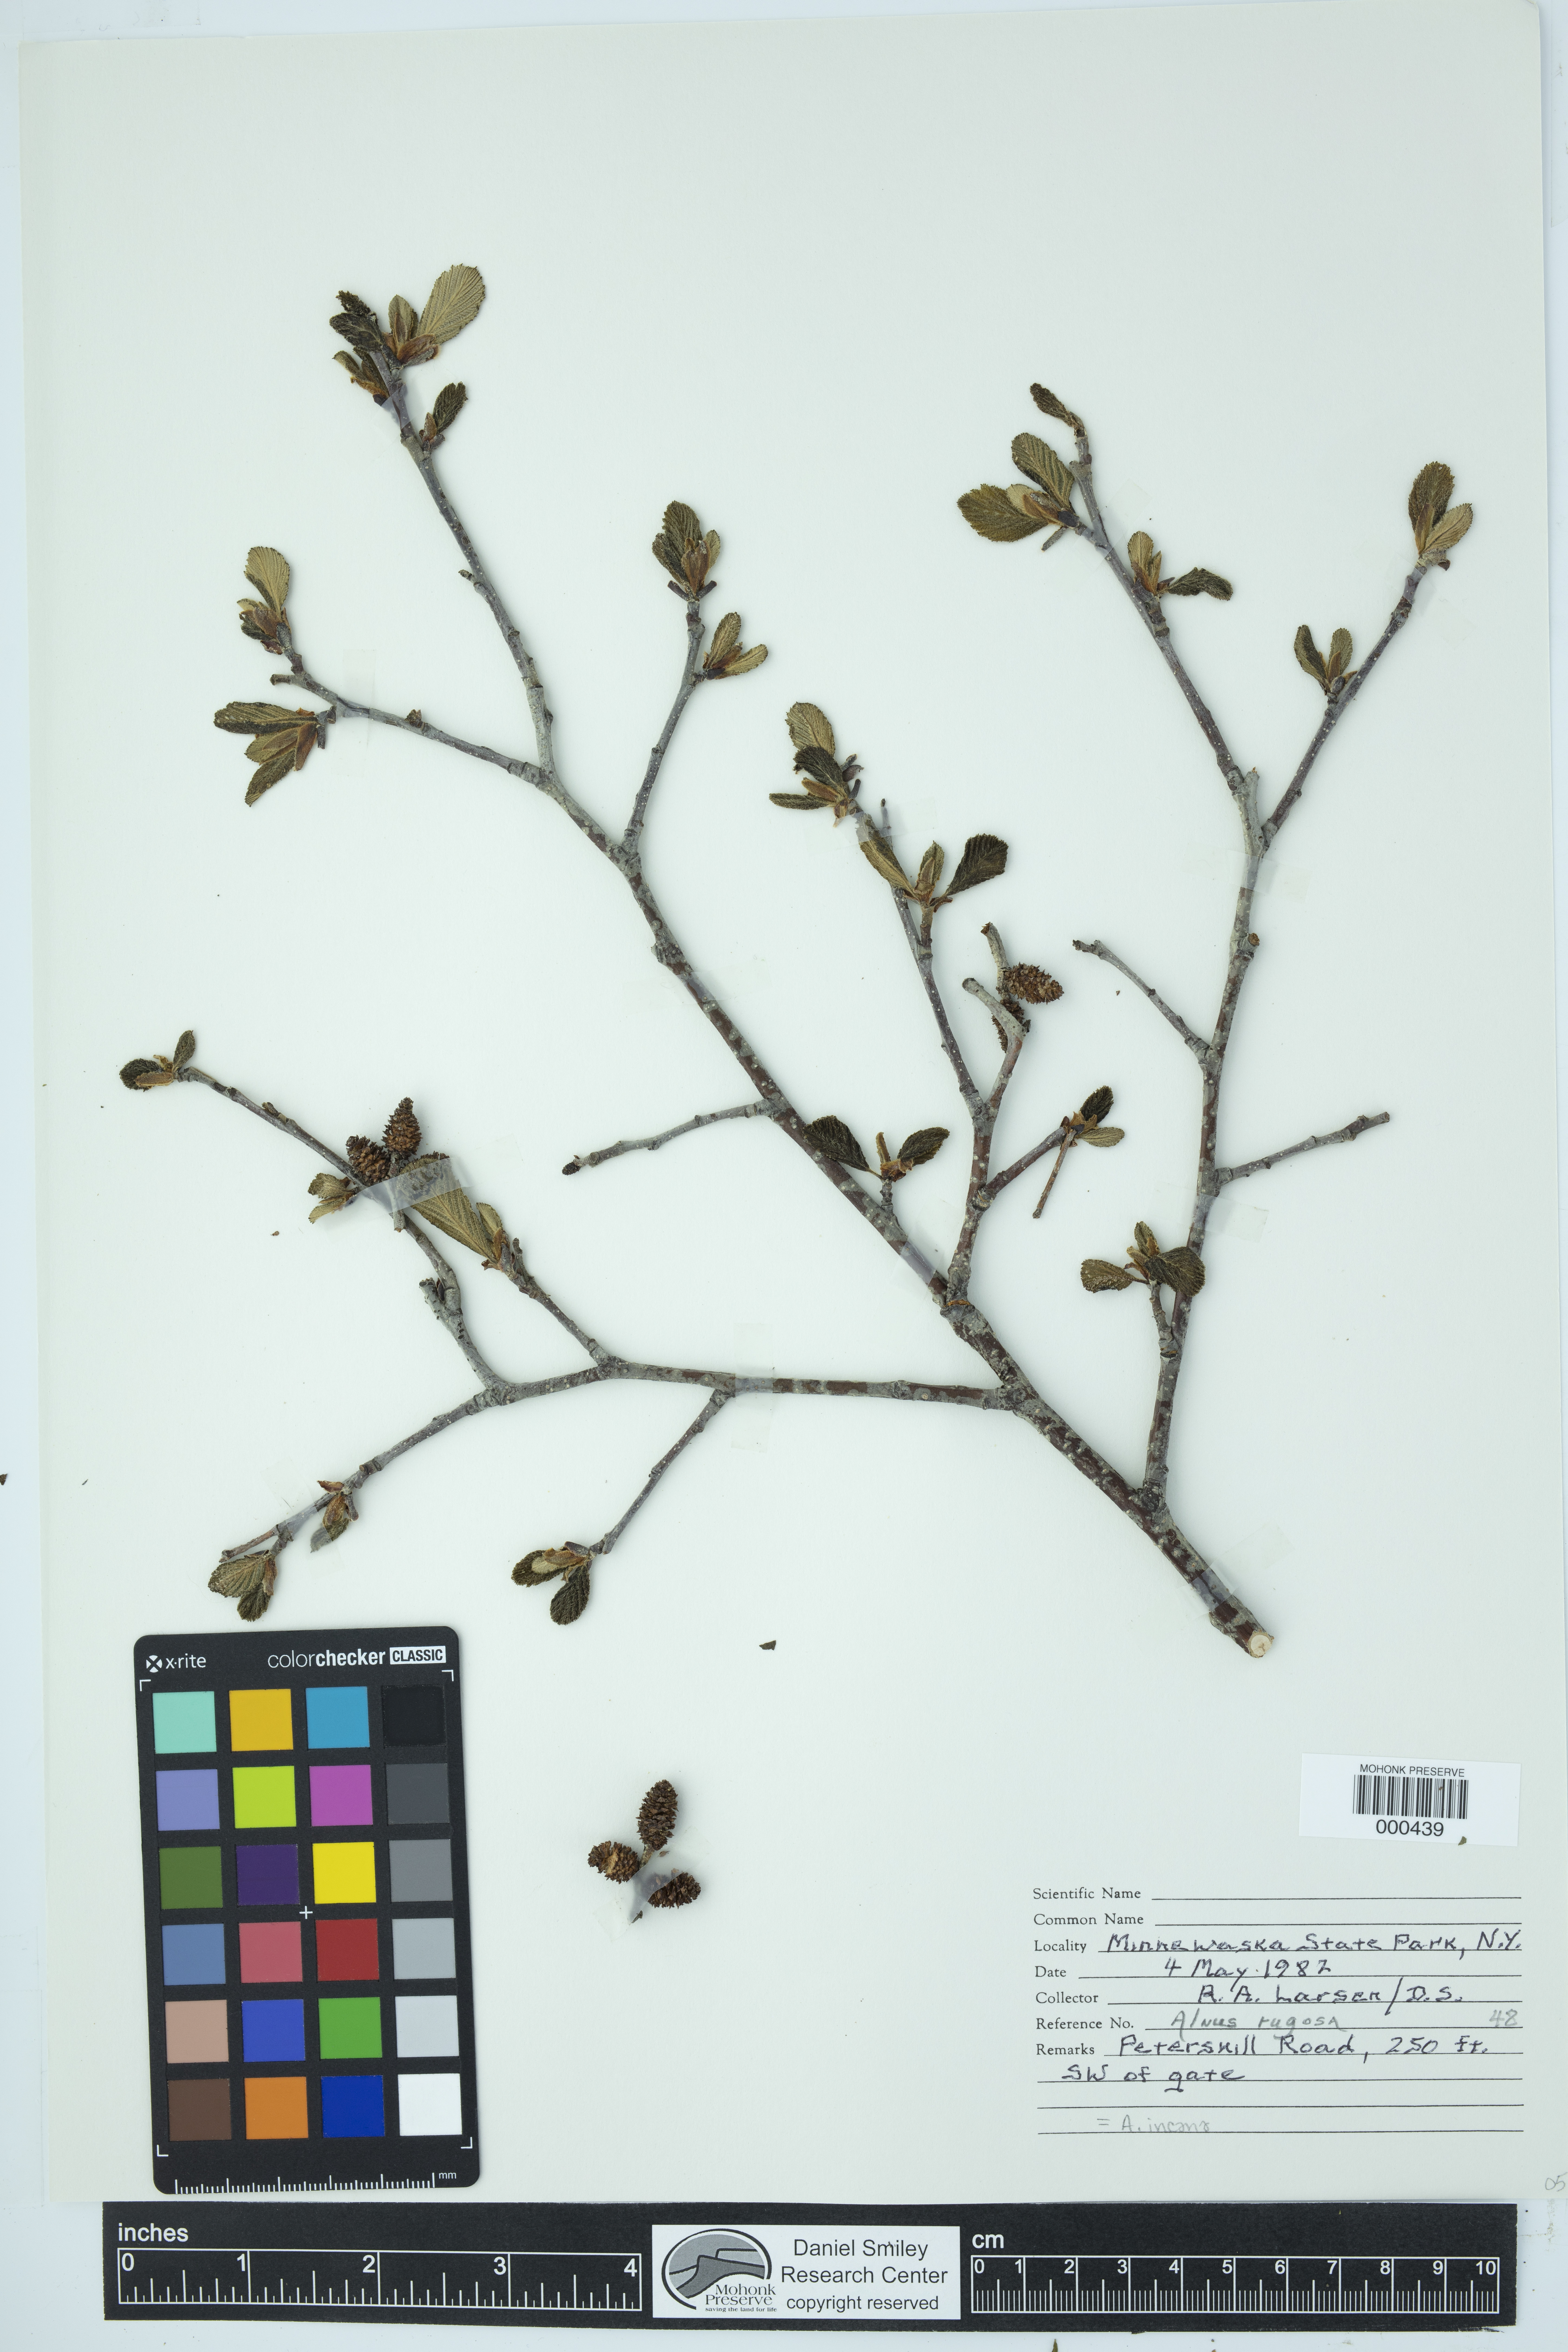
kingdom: Plantae
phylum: Tracheophyta
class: Magnoliopsida
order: Fagales
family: Betulaceae
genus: Alnus
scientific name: Alnus incana
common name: Grey alder
